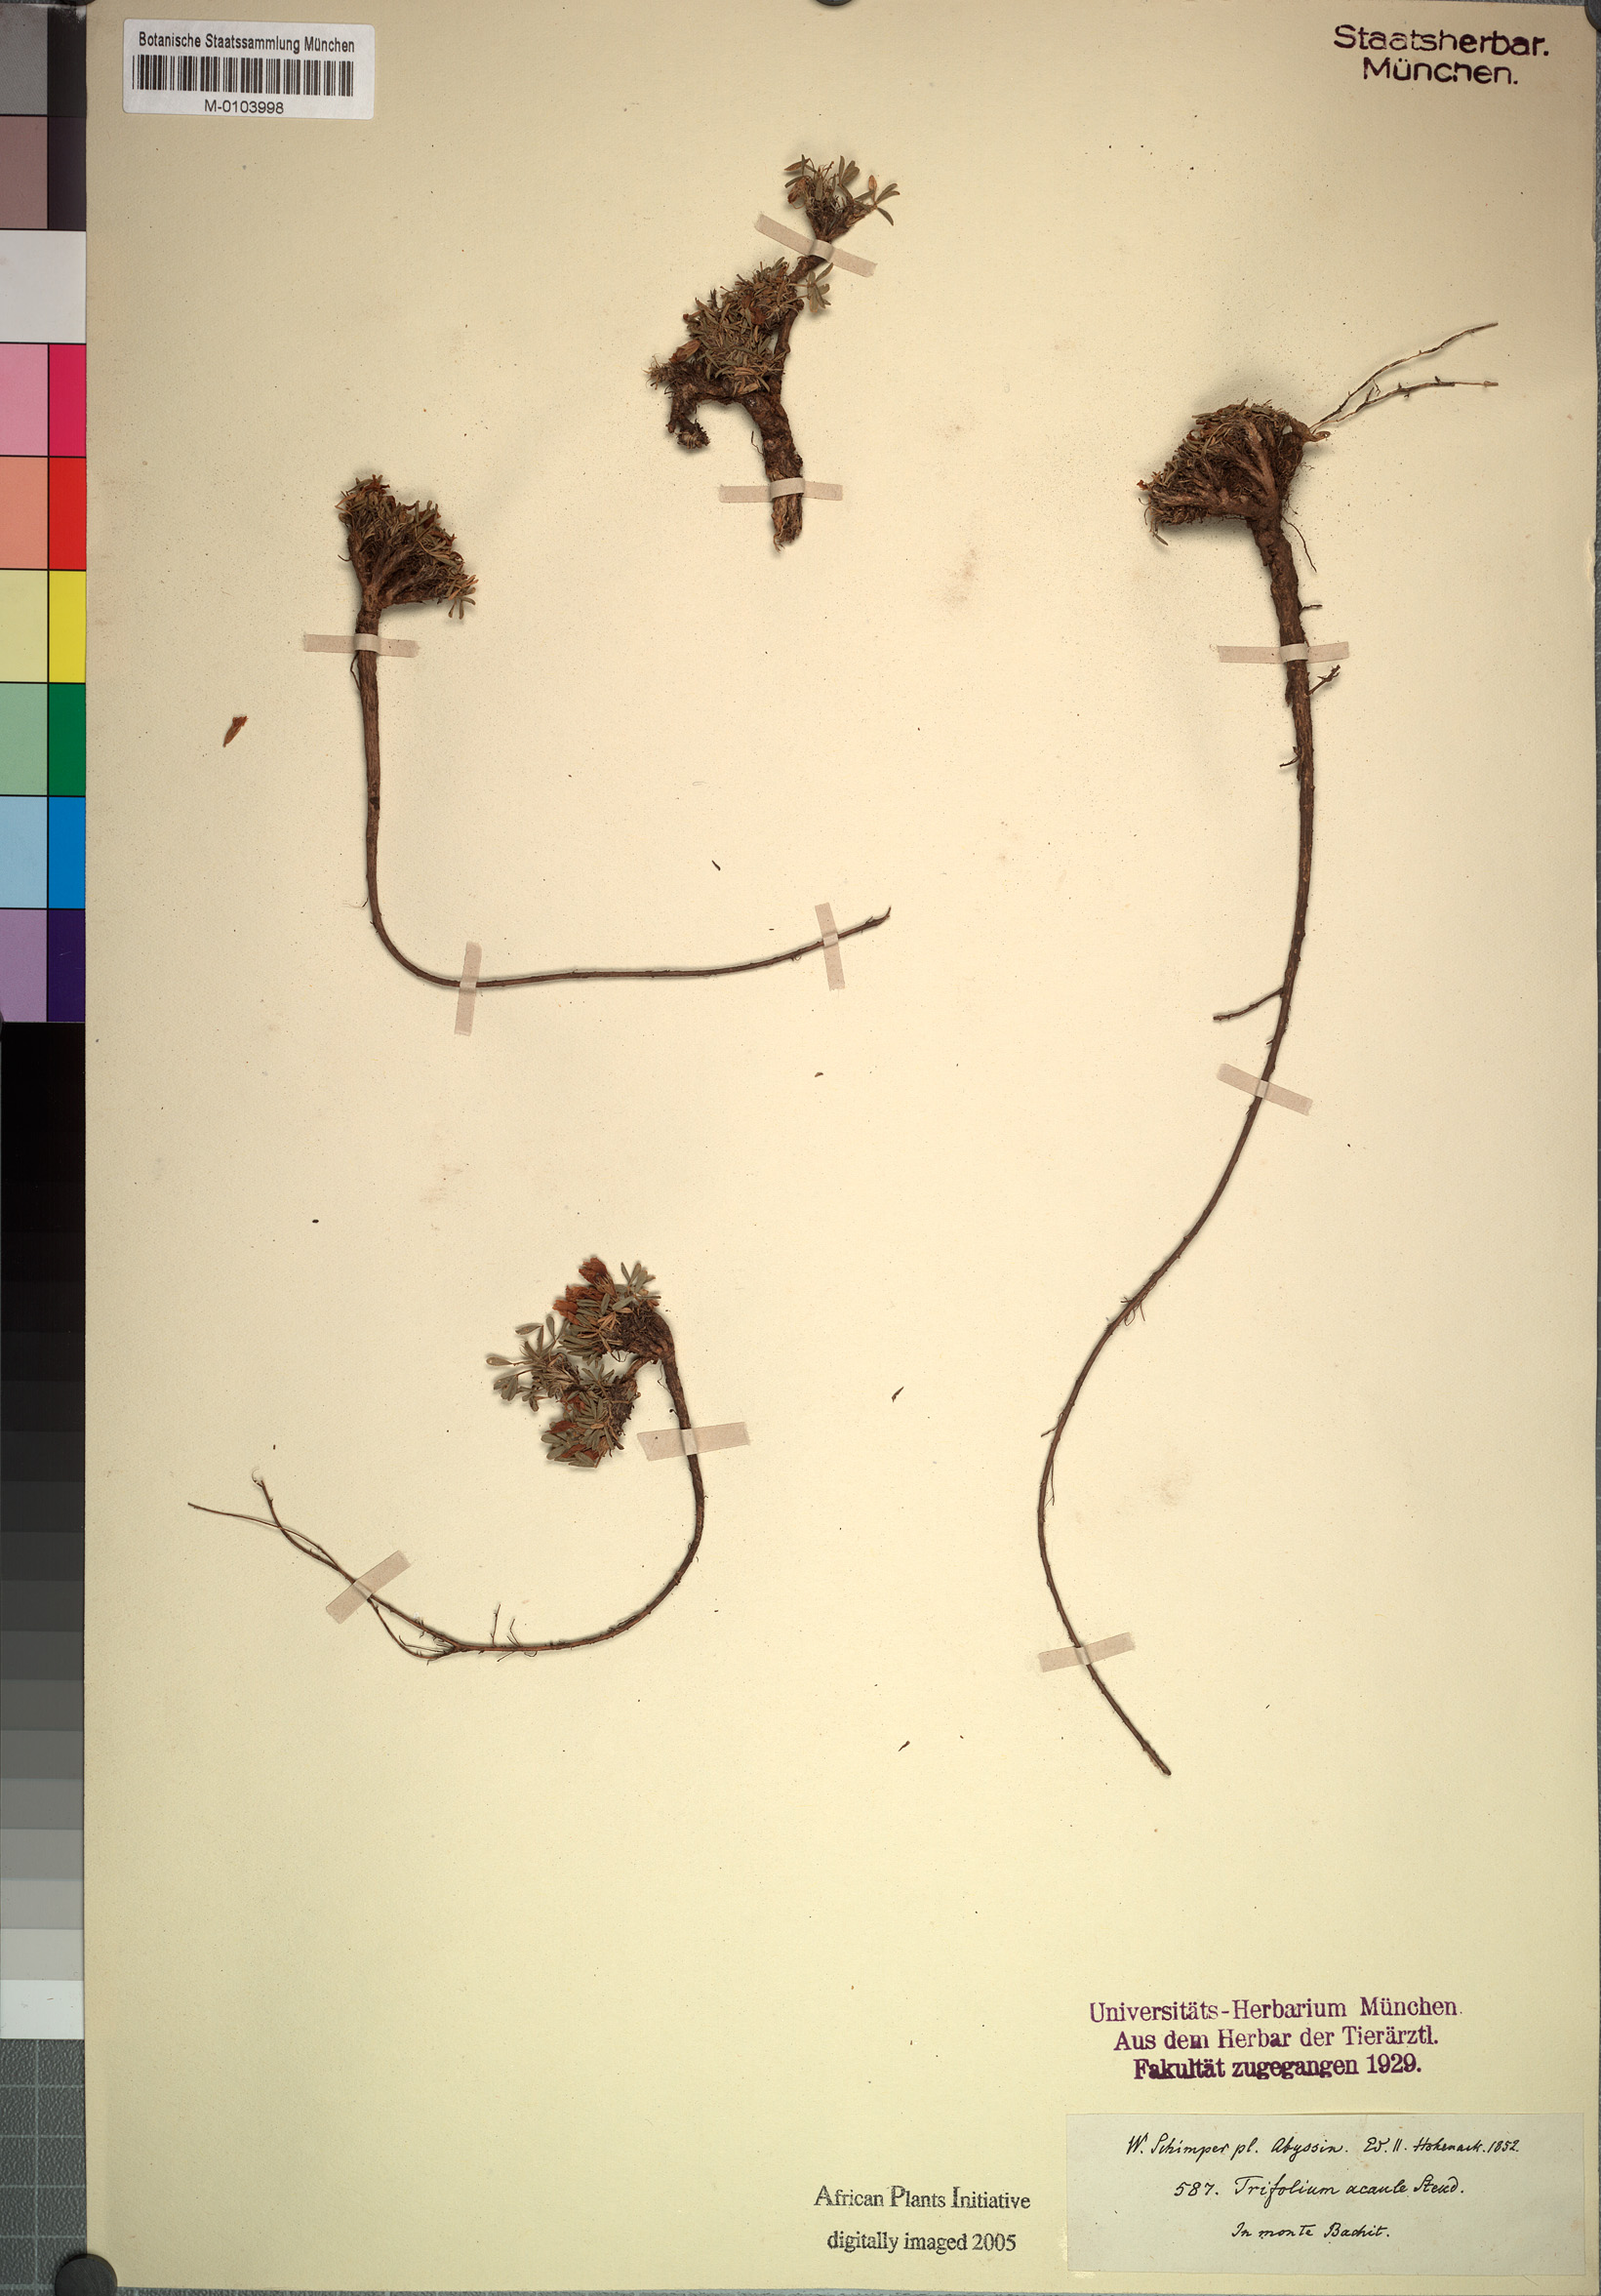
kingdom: Plantae
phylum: Tracheophyta
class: Magnoliopsida
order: Fabales
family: Fabaceae
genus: Trifolium
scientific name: Trifolium acaule
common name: Stemless clover
